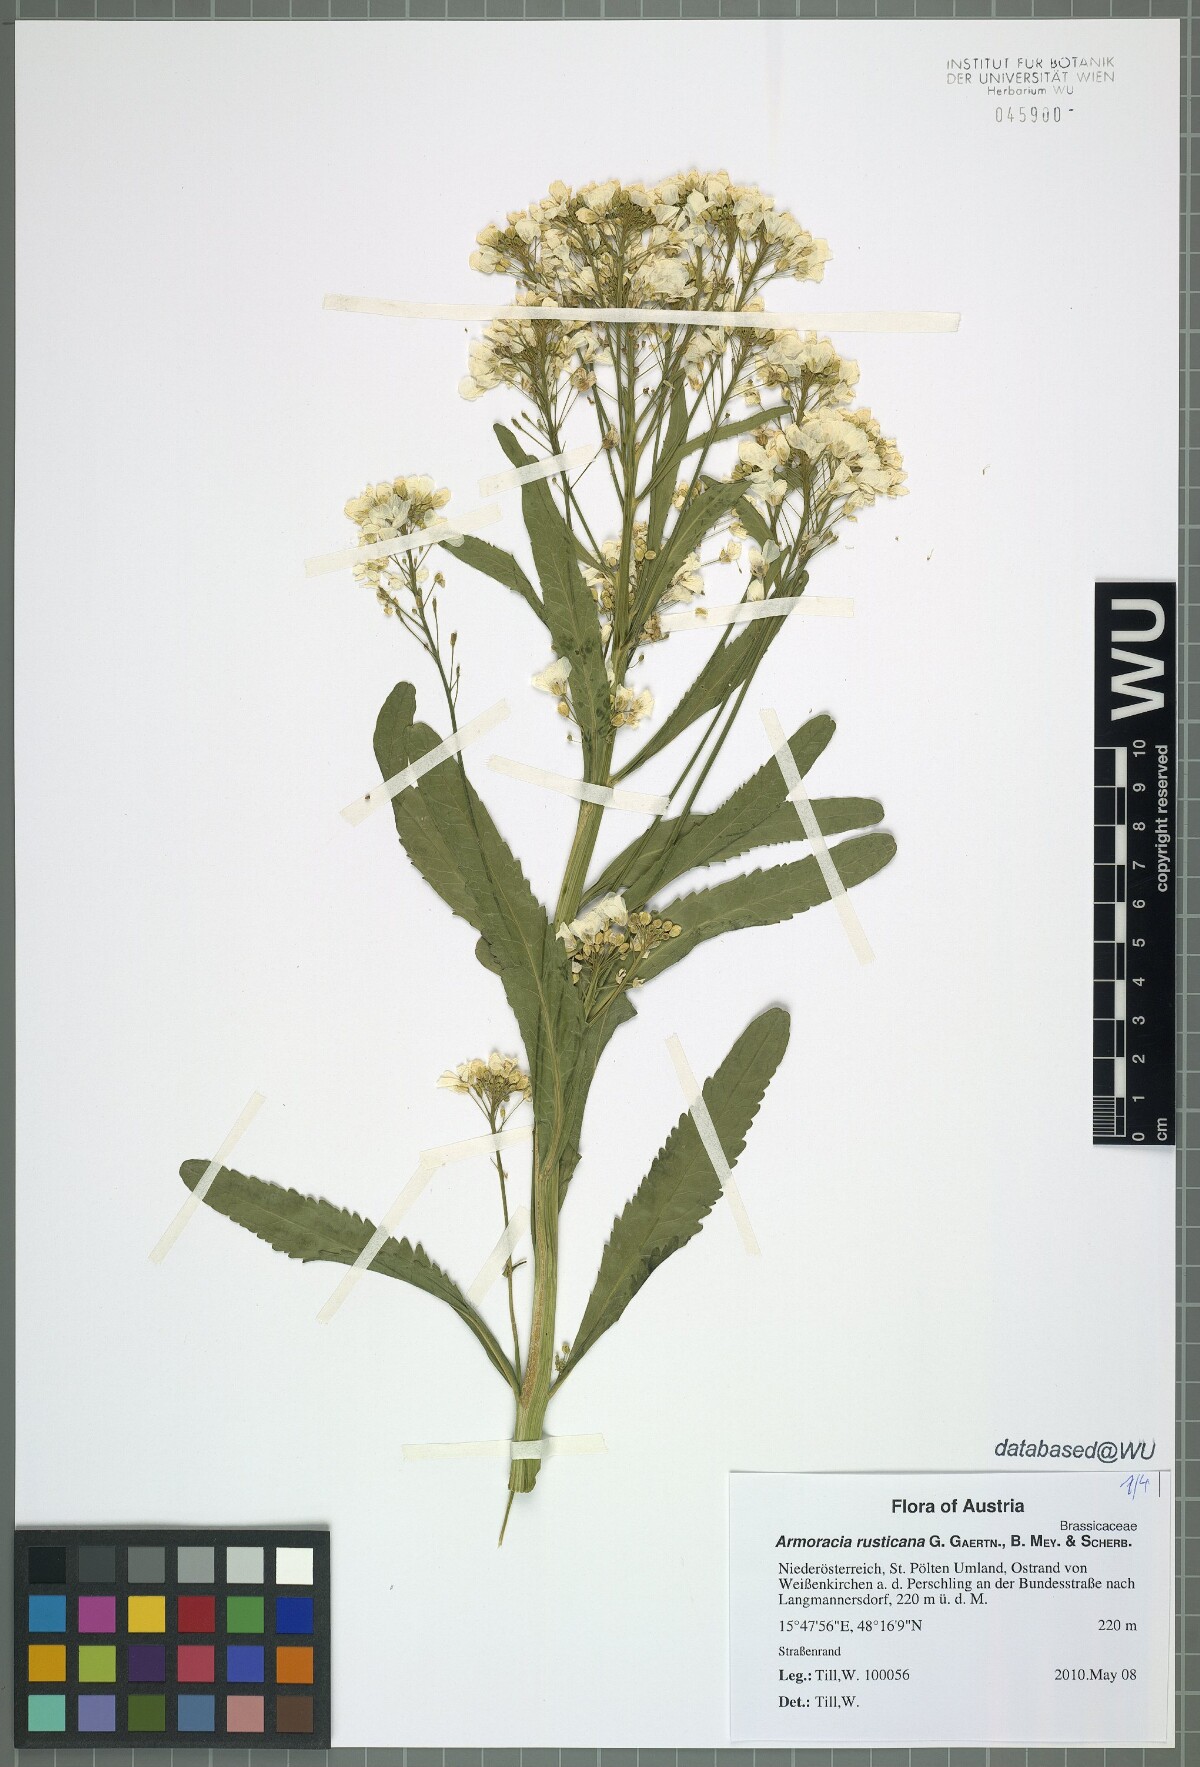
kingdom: Plantae
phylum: Tracheophyta
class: Magnoliopsida
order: Brassicales
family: Brassicaceae
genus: Armoracia
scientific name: Armoracia rusticana
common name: Horseradish
